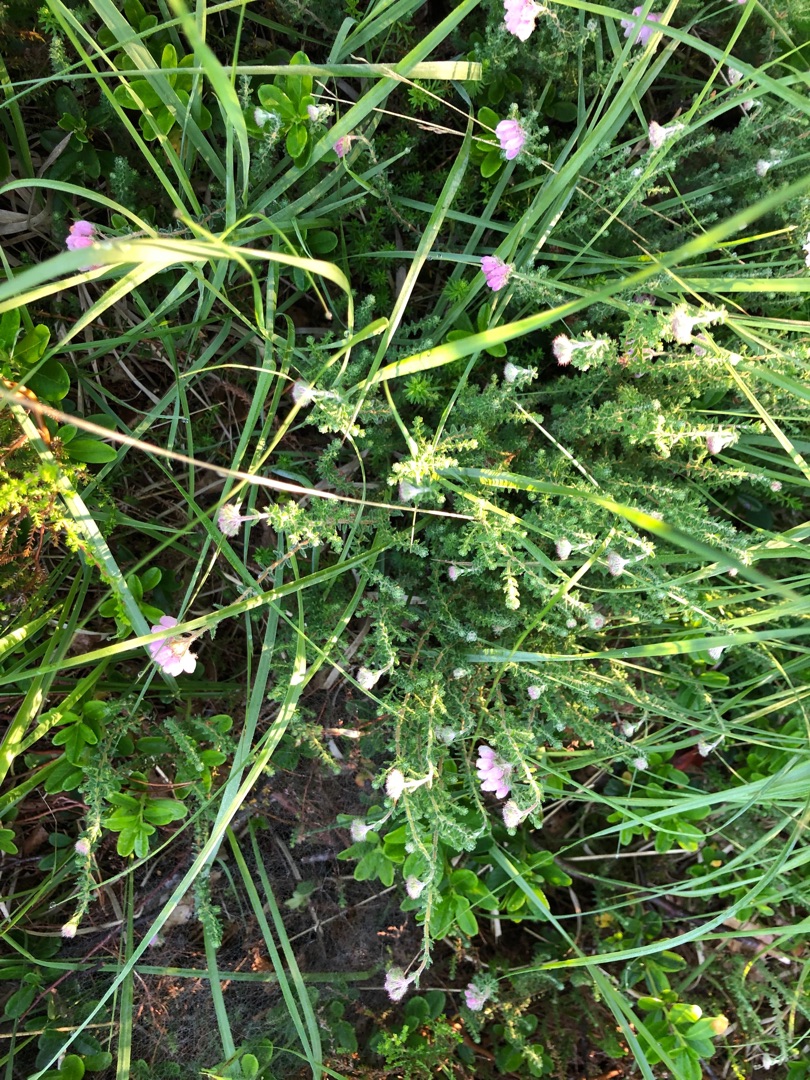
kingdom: Plantae
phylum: Tracheophyta
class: Magnoliopsida
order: Ericales
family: Ericaceae
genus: Erica
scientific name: Erica tetralix
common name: Klokkelyng
